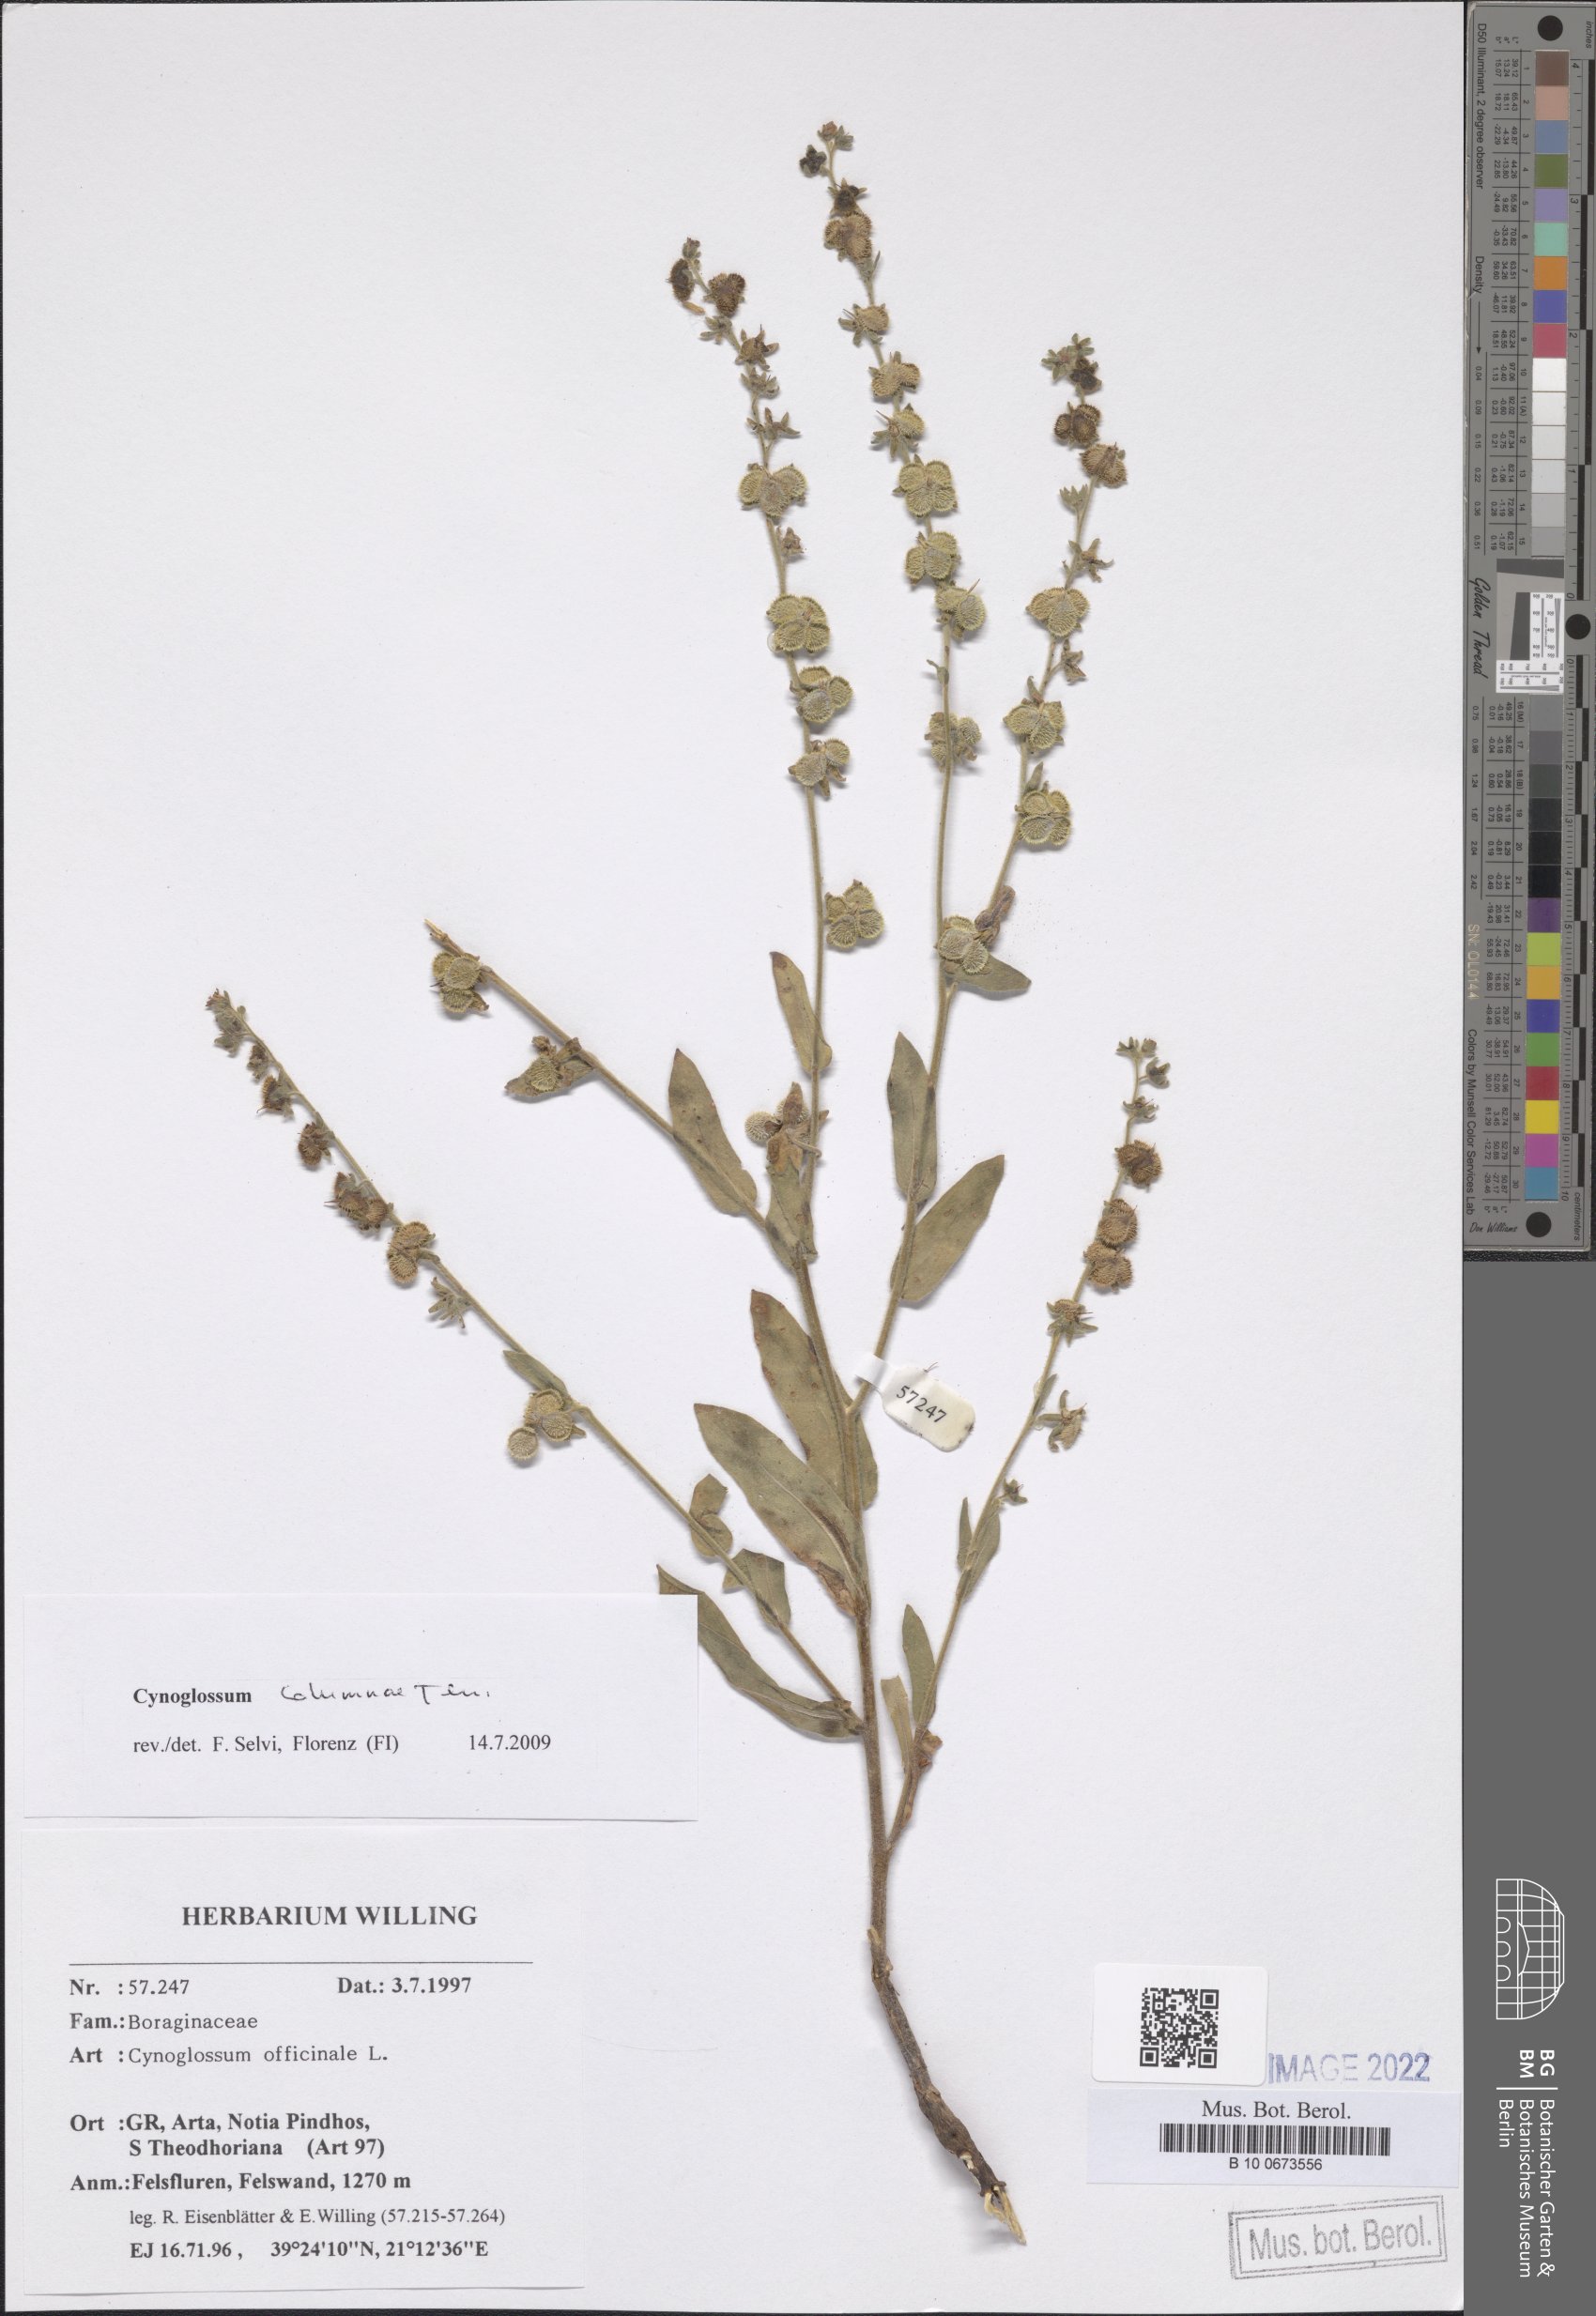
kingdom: Plantae
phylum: Tracheophyta
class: Magnoliopsida
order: Boraginales
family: Boraginaceae
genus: Rindera
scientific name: Rindera columnae
